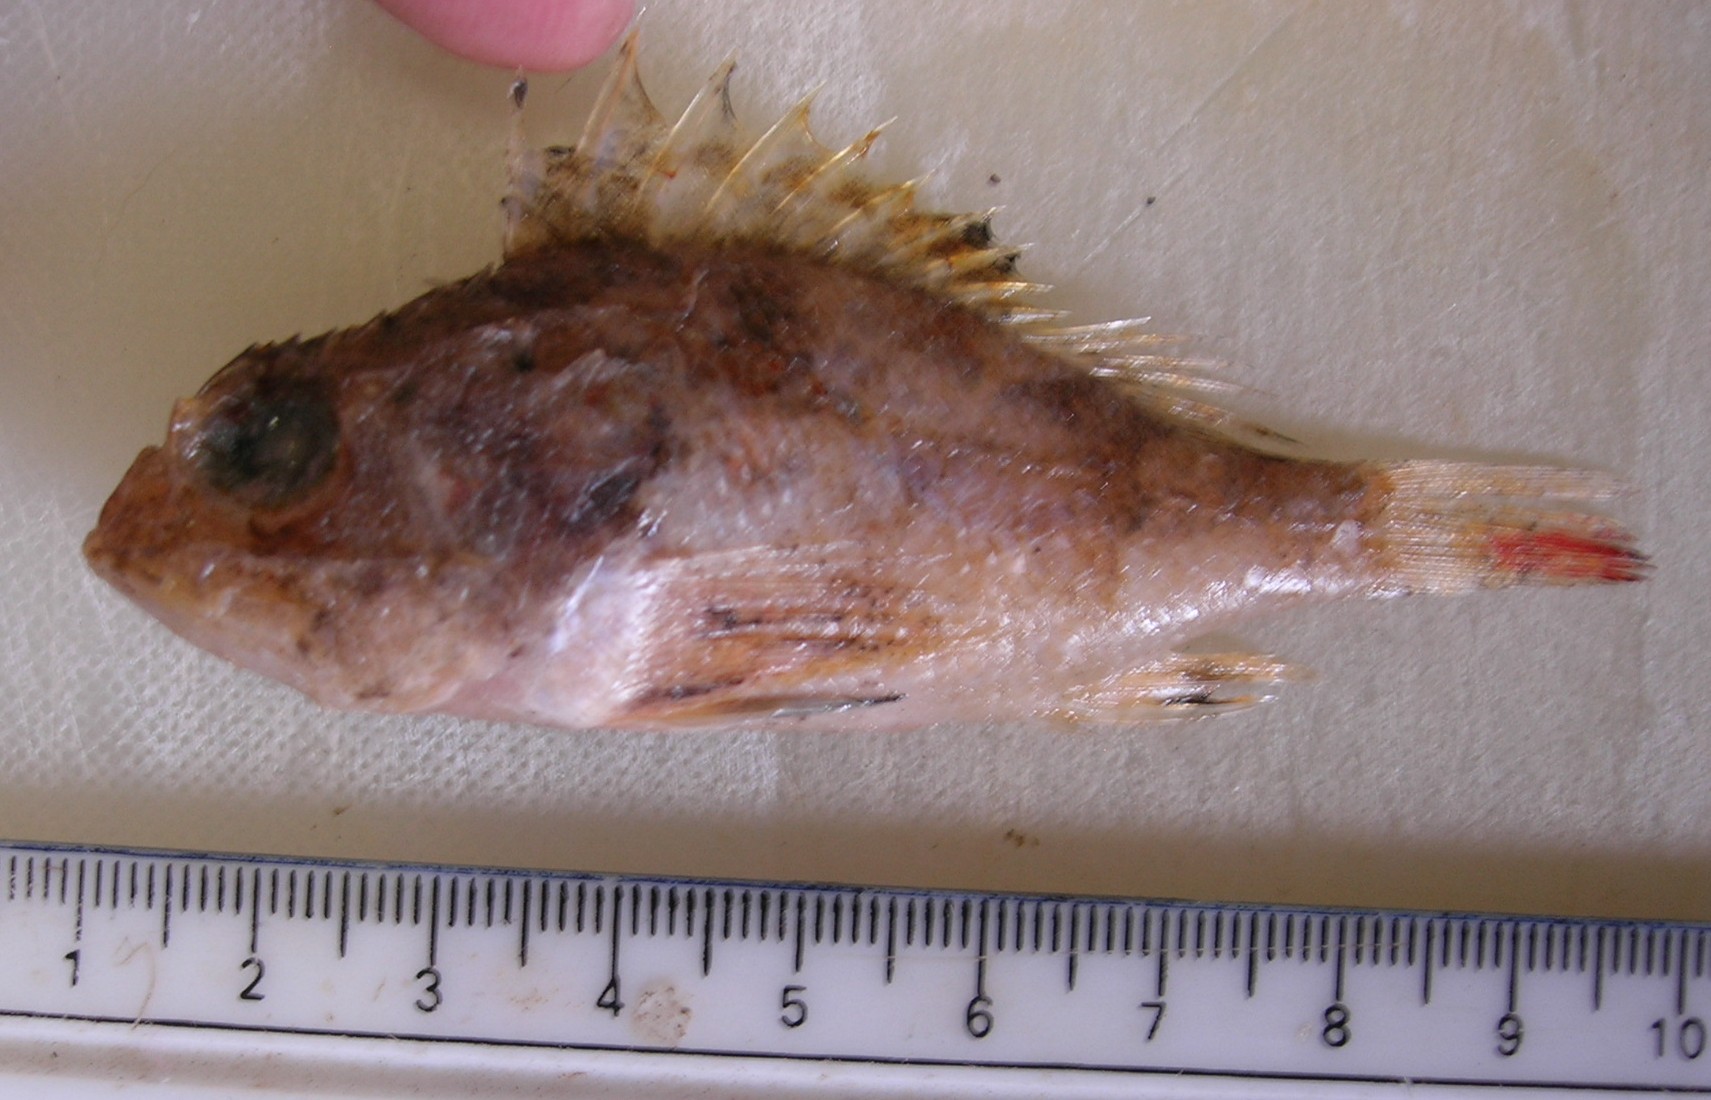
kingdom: Animalia
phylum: Chordata
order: Scorpaeniformes
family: Scorpaenidae
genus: Sebastapistes
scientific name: Sebastapistes strongia
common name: Barchin scorpionfish
